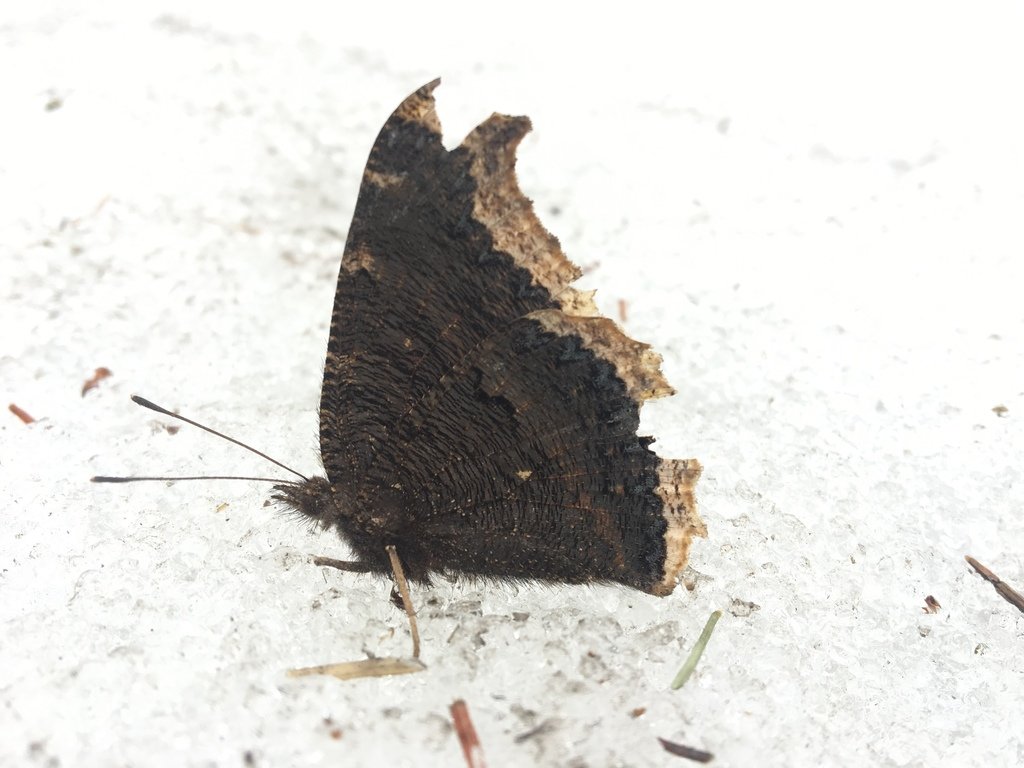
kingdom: Animalia
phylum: Arthropoda
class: Insecta
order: Lepidoptera
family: Nymphalidae
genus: Nymphalis
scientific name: Nymphalis antiopa
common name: Mourning Cloak
